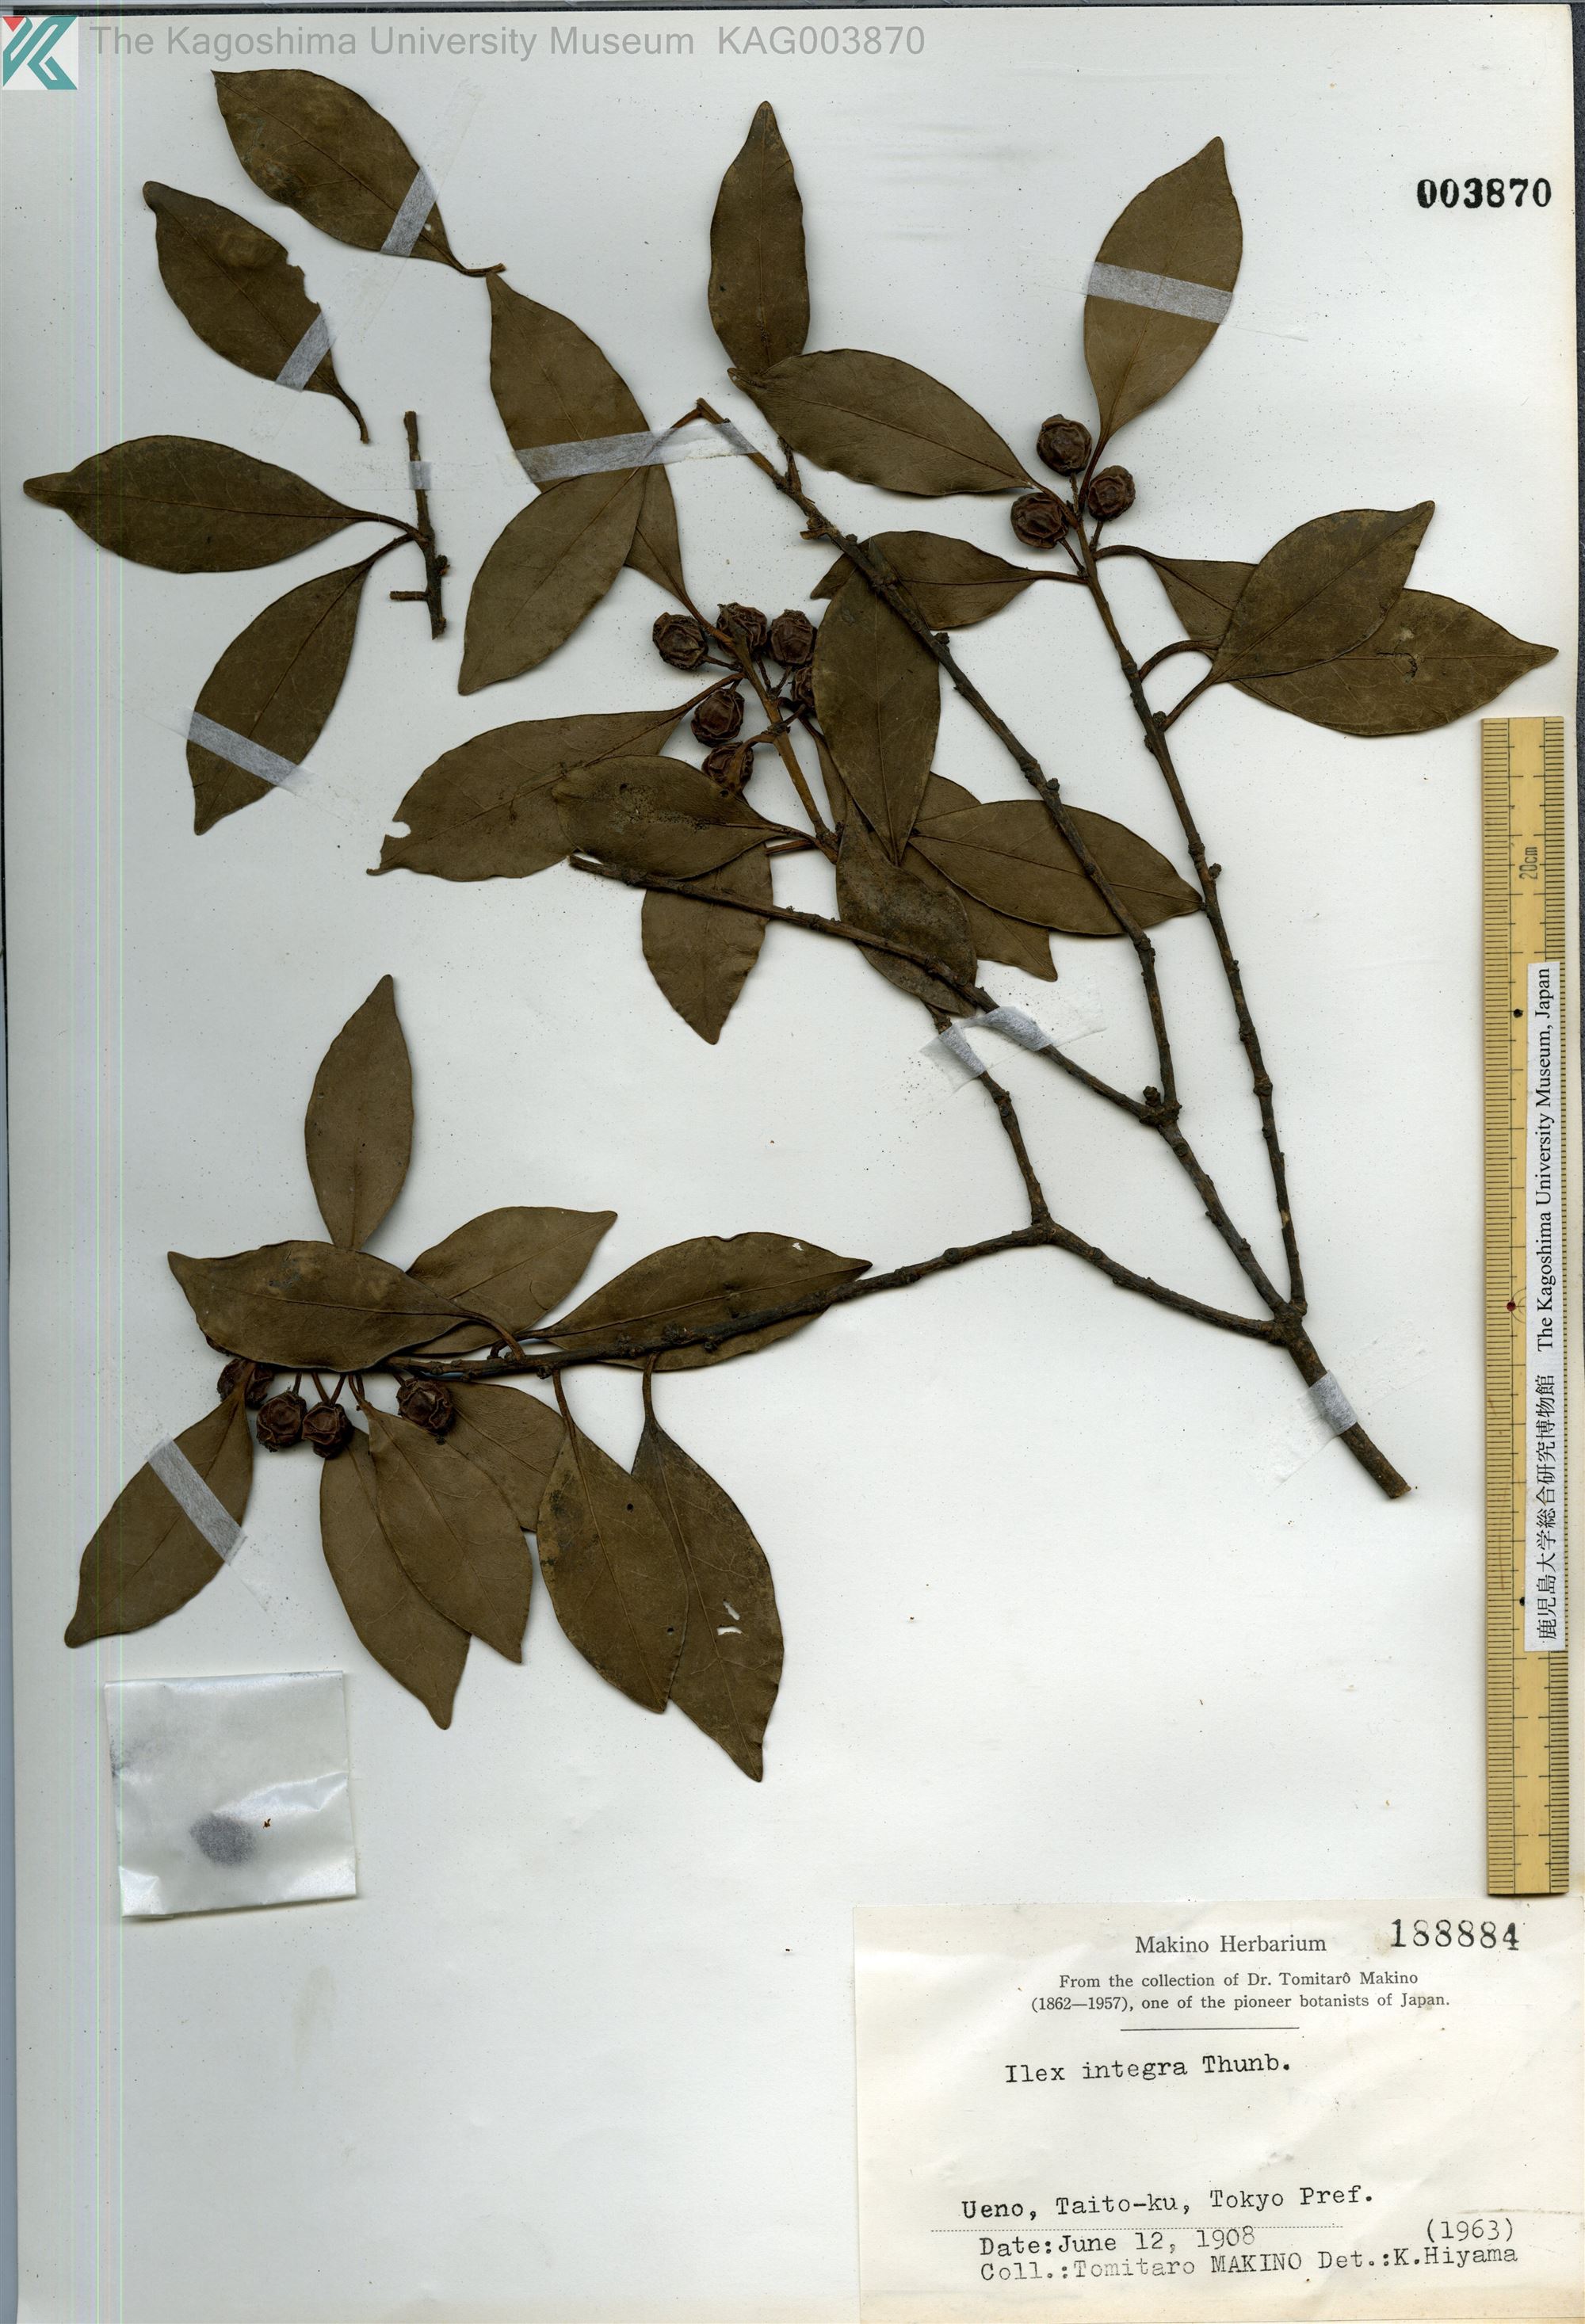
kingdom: Plantae
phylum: Tracheophyta
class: Magnoliopsida
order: Aquifoliales
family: Aquifoliaceae
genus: Ilex
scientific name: Ilex integra
